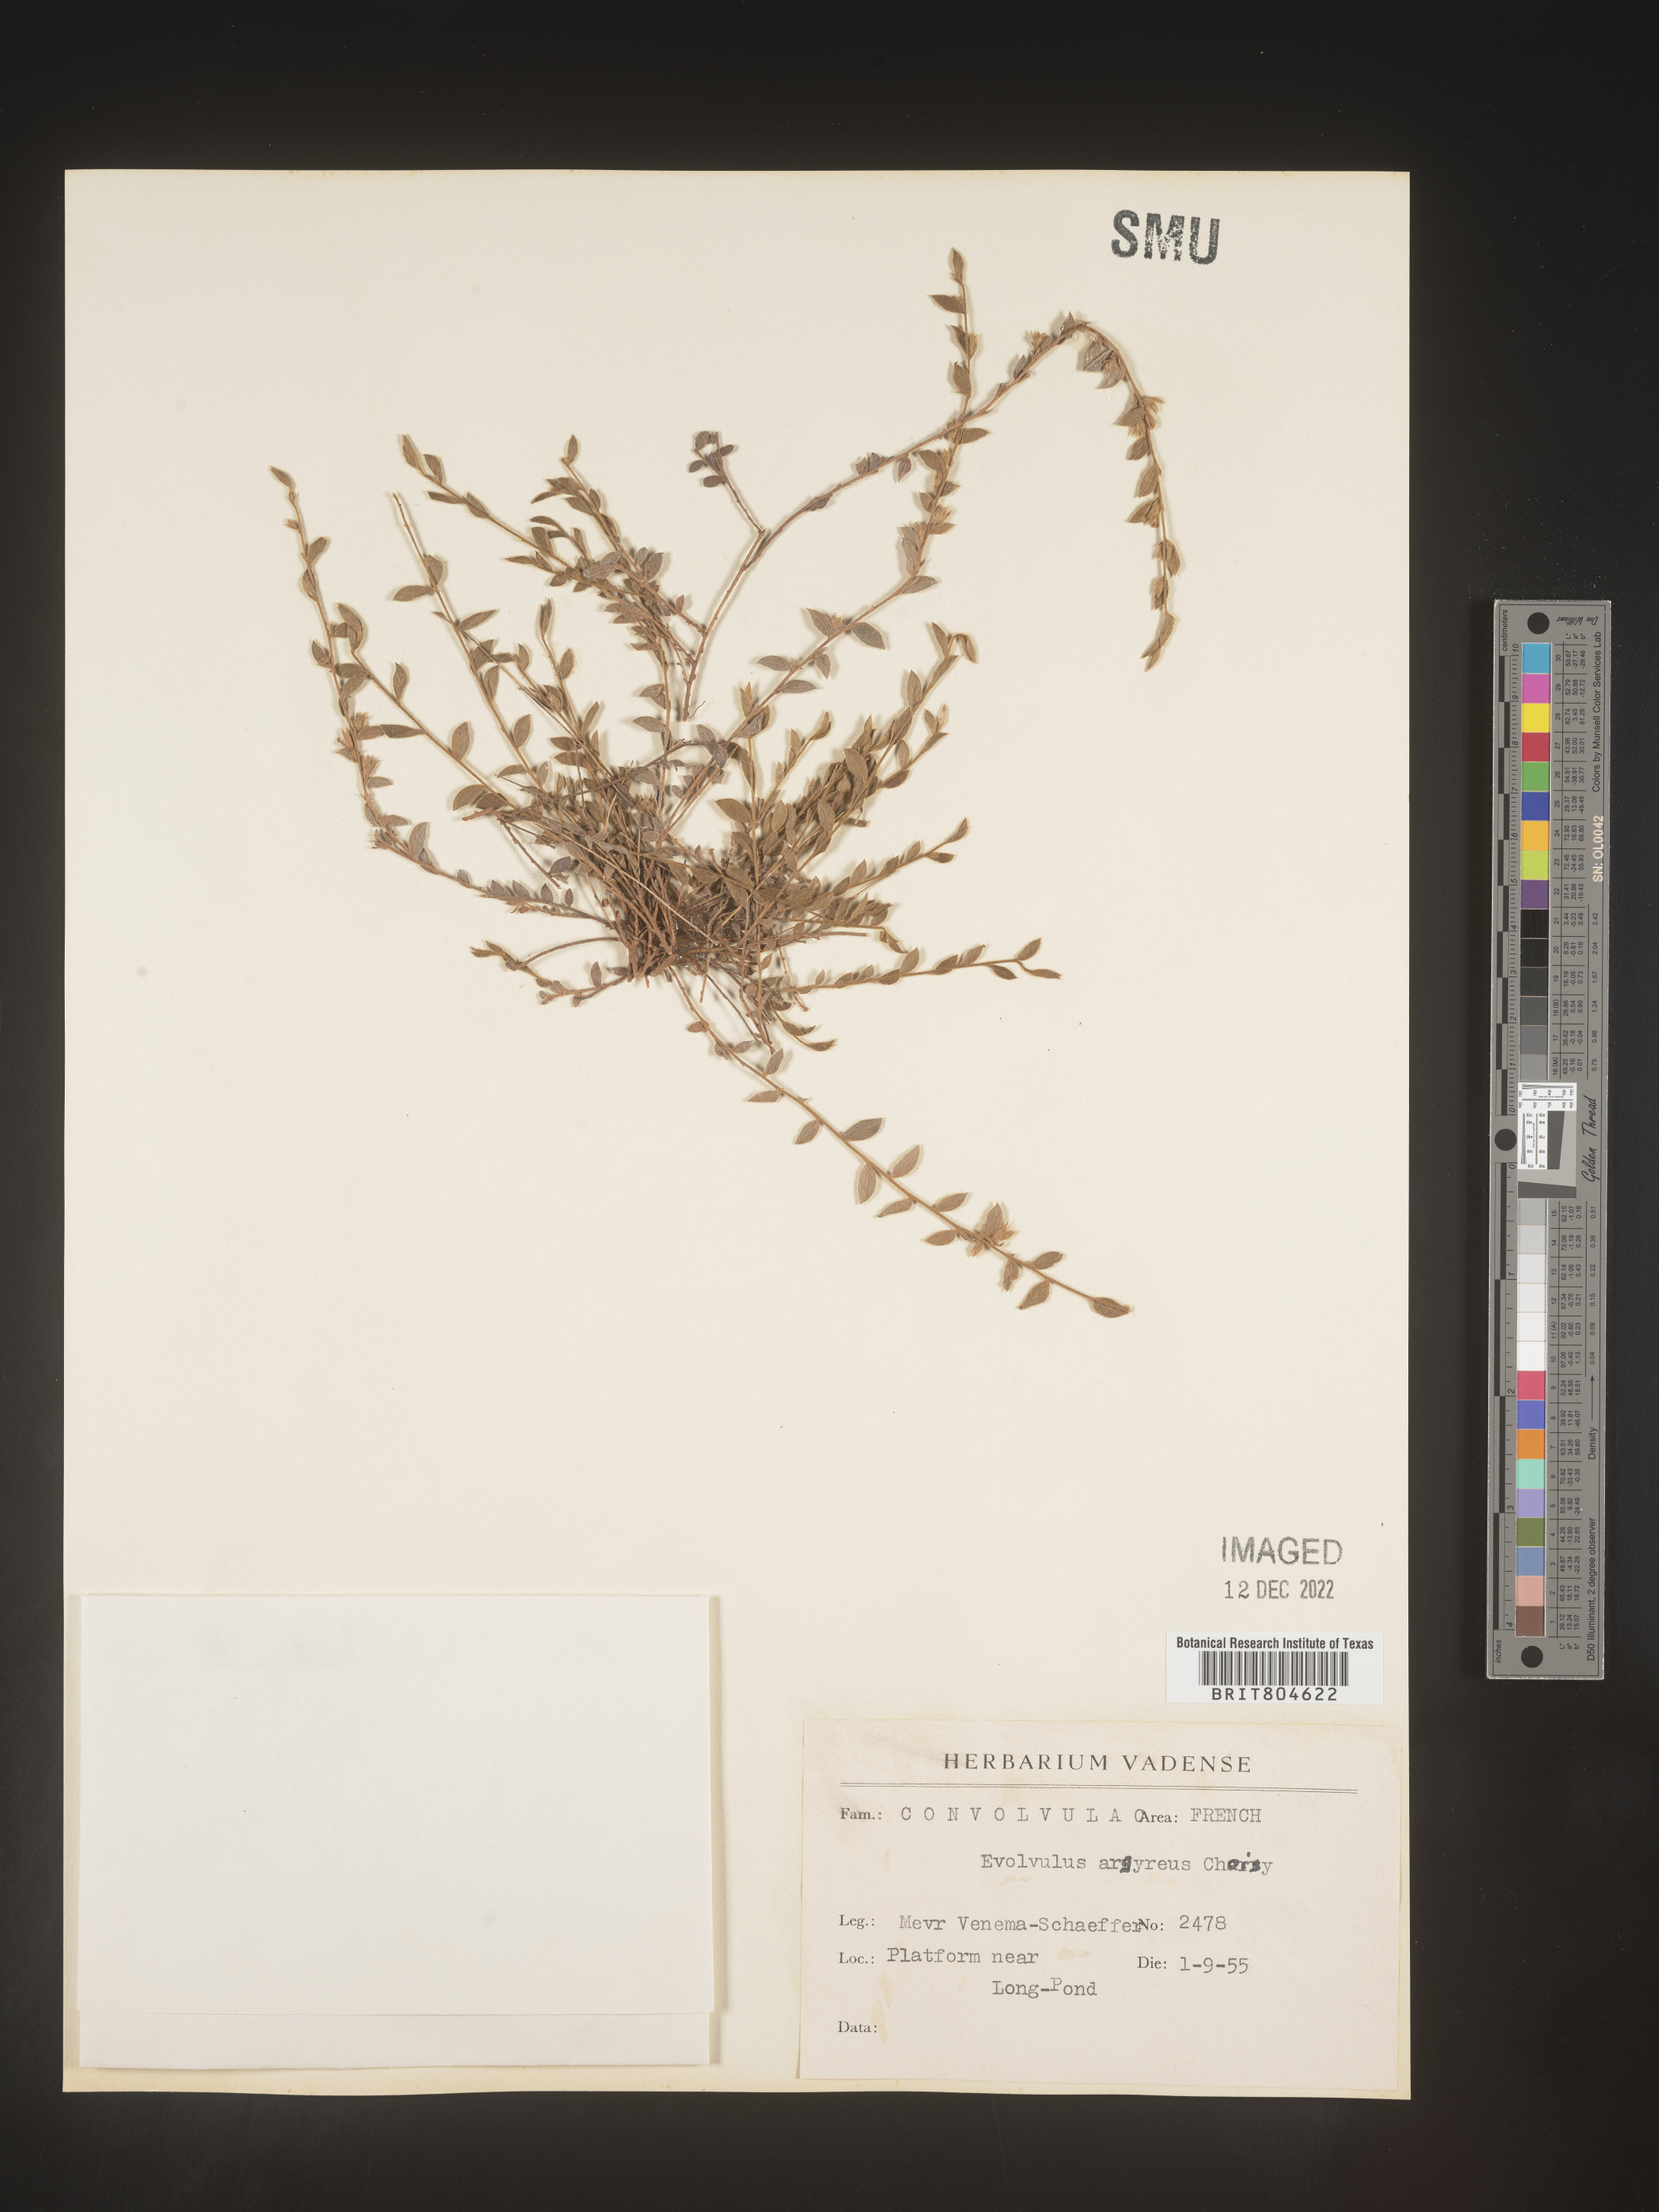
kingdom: Plantae
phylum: Tracheophyta
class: Magnoliopsida
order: Solanales
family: Convolvulaceae
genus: Evolvulus
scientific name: Evolvulus
